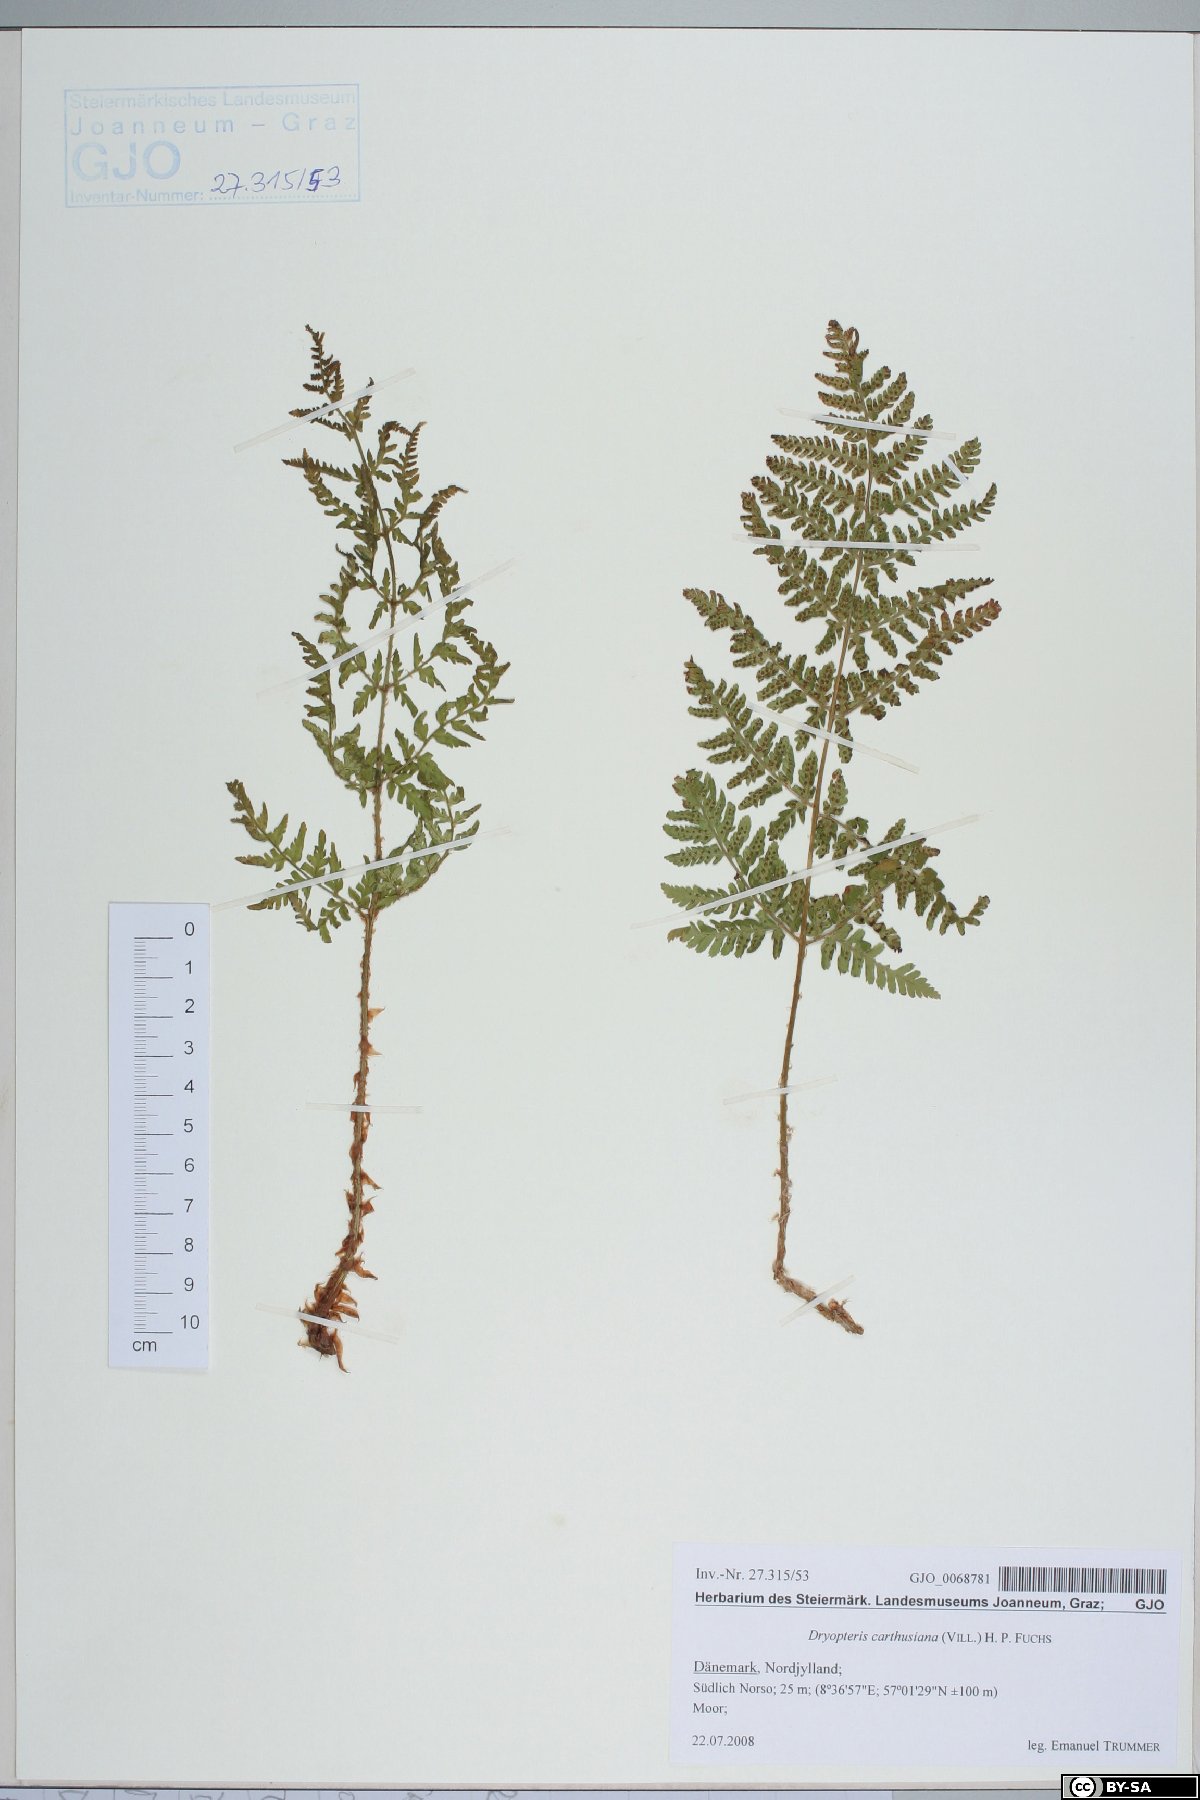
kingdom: Plantae
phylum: Tracheophyta
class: Polypodiopsida
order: Polypodiales
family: Dryopteridaceae
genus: Dryopteris
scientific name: Dryopteris carthusiana
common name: Narrow buckler-fern
